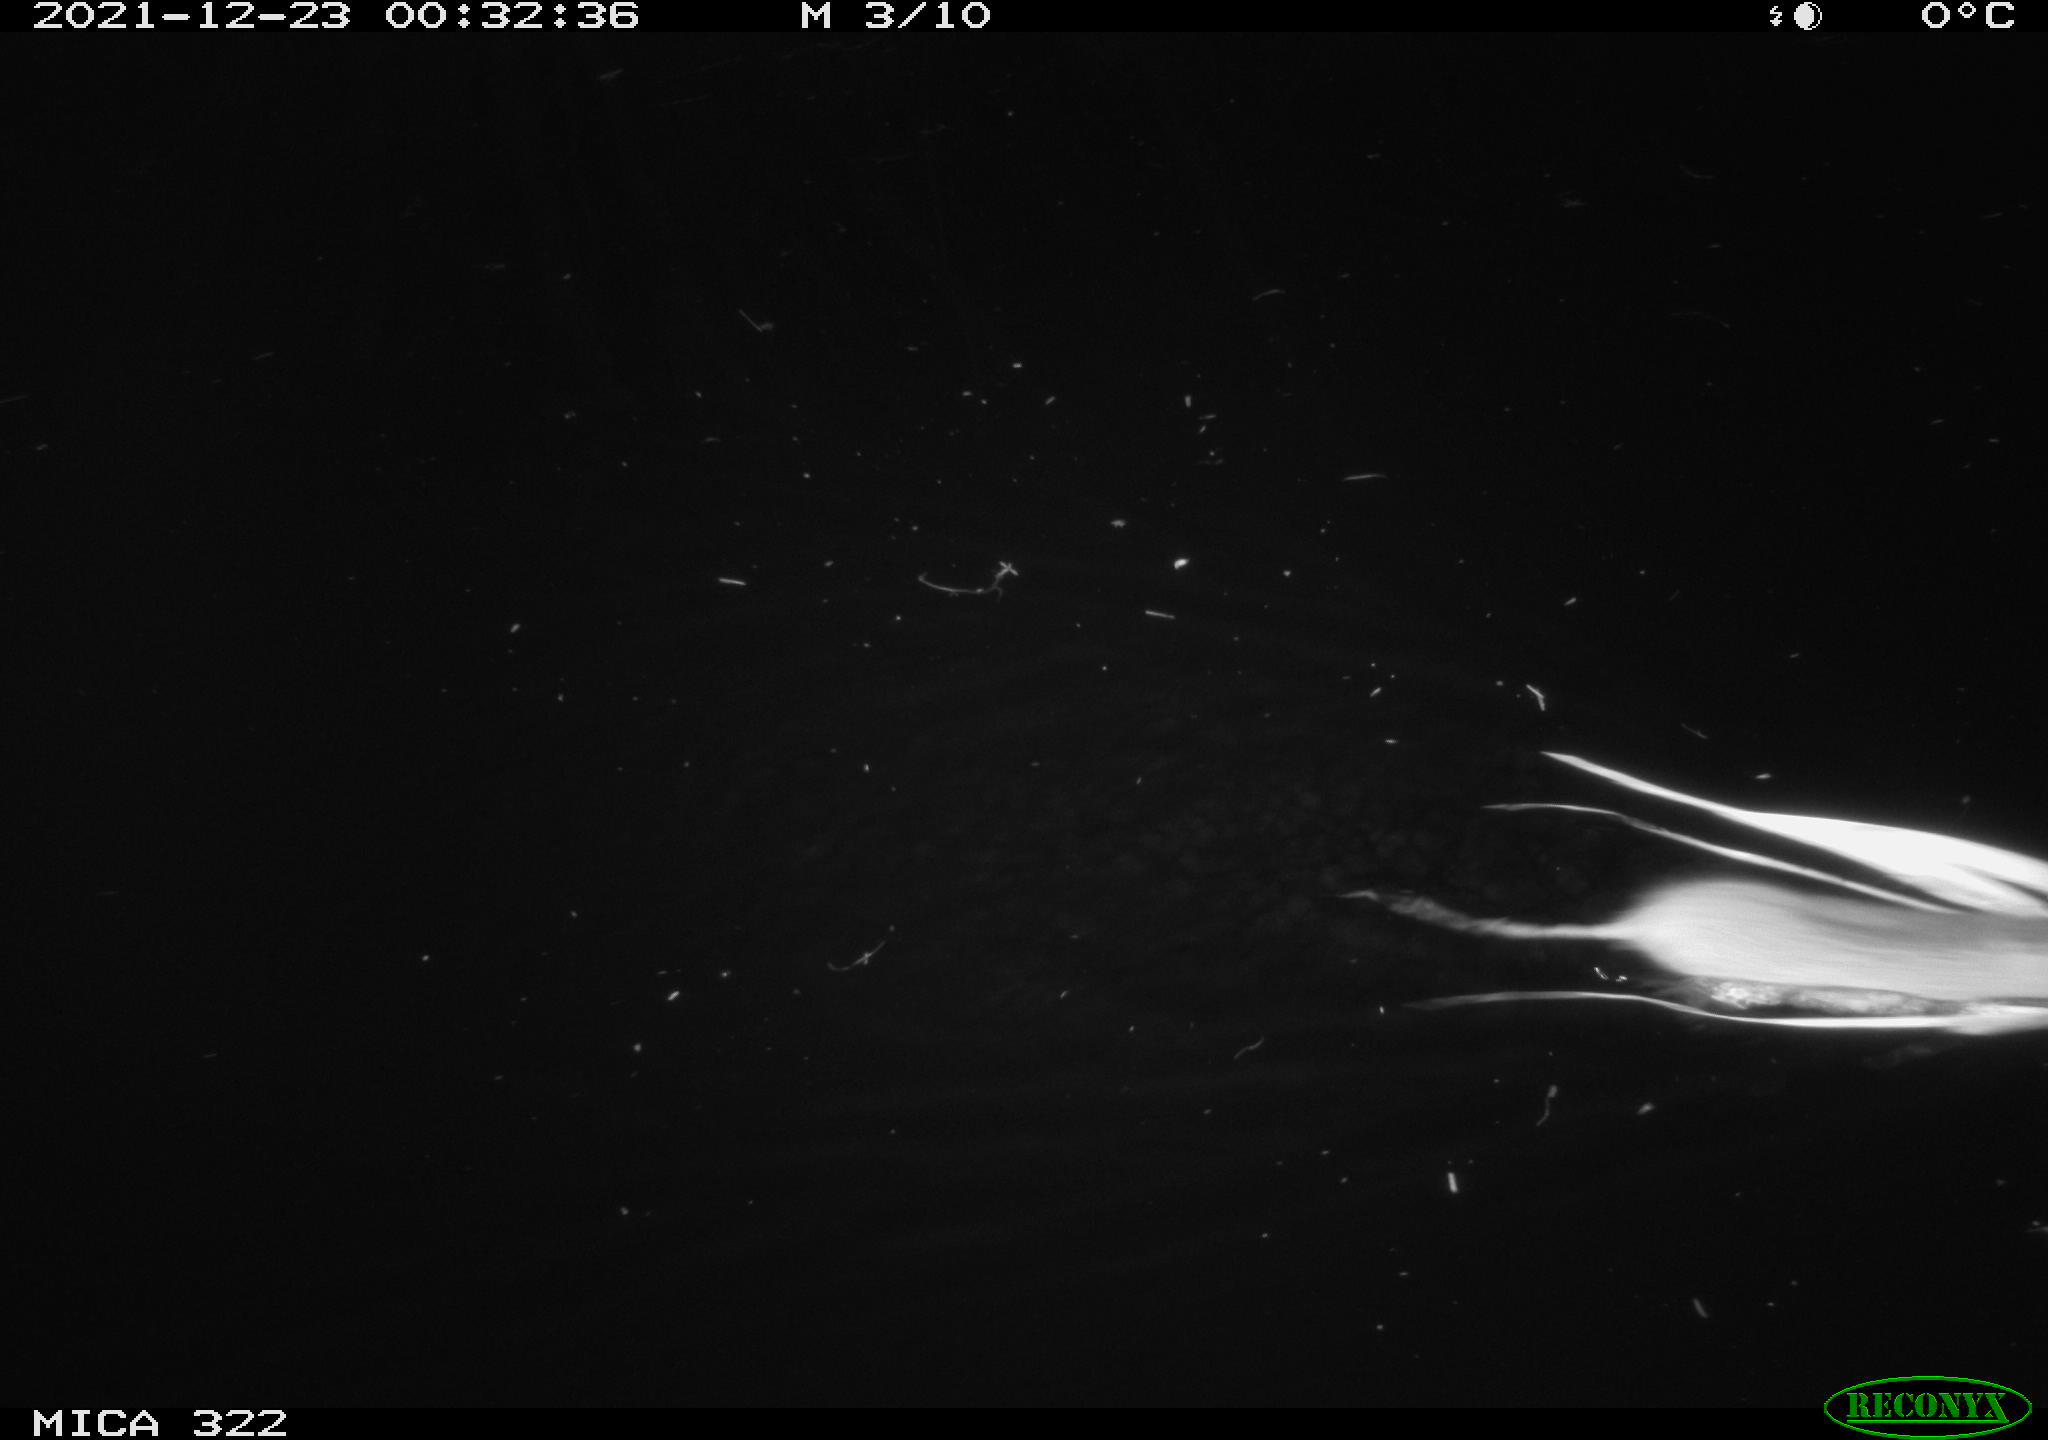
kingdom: Animalia
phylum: Chordata
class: Mammalia
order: Rodentia
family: Muridae
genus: Rattus
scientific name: Rattus norvegicus
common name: Brown rat
